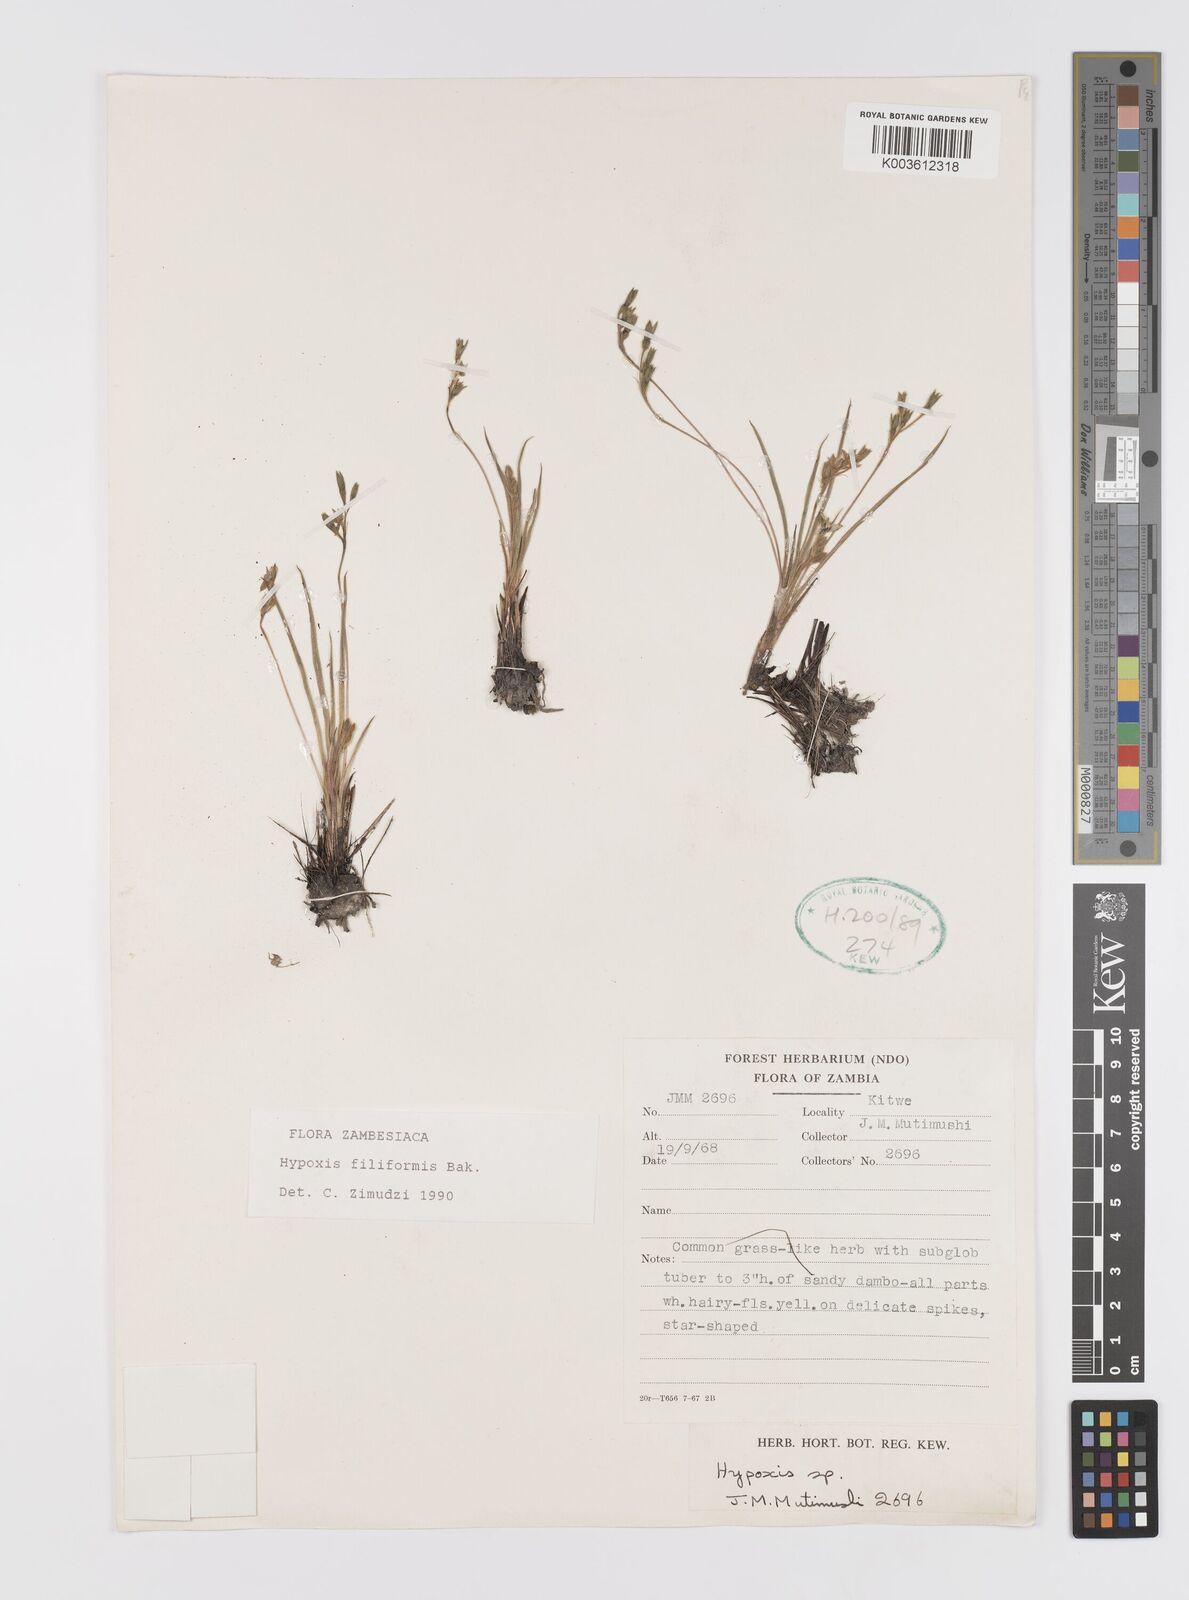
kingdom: Plantae
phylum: Tracheophyta
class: Liliopsida
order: Asparagales
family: Hypoxidaceae
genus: Hypoxis
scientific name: Hypoxis filiformis
